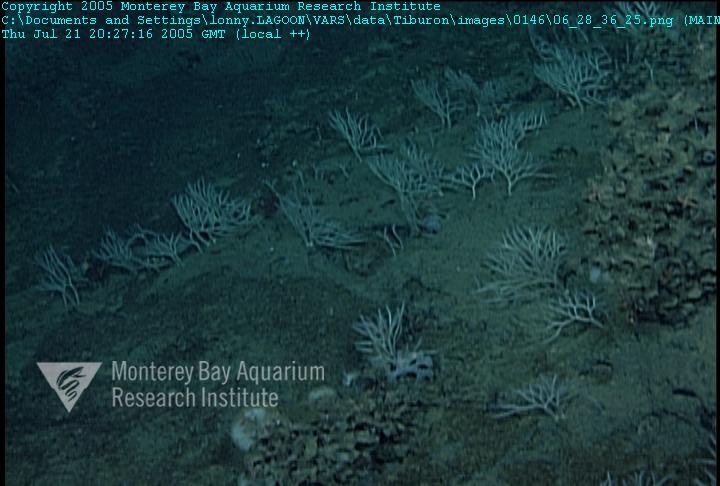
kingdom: Animalia
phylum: Porifera
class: Hexactinellida
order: Sceptrulophora
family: Farreidae
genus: Farrea
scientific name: Farrea occa
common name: Reversed glass sponge
